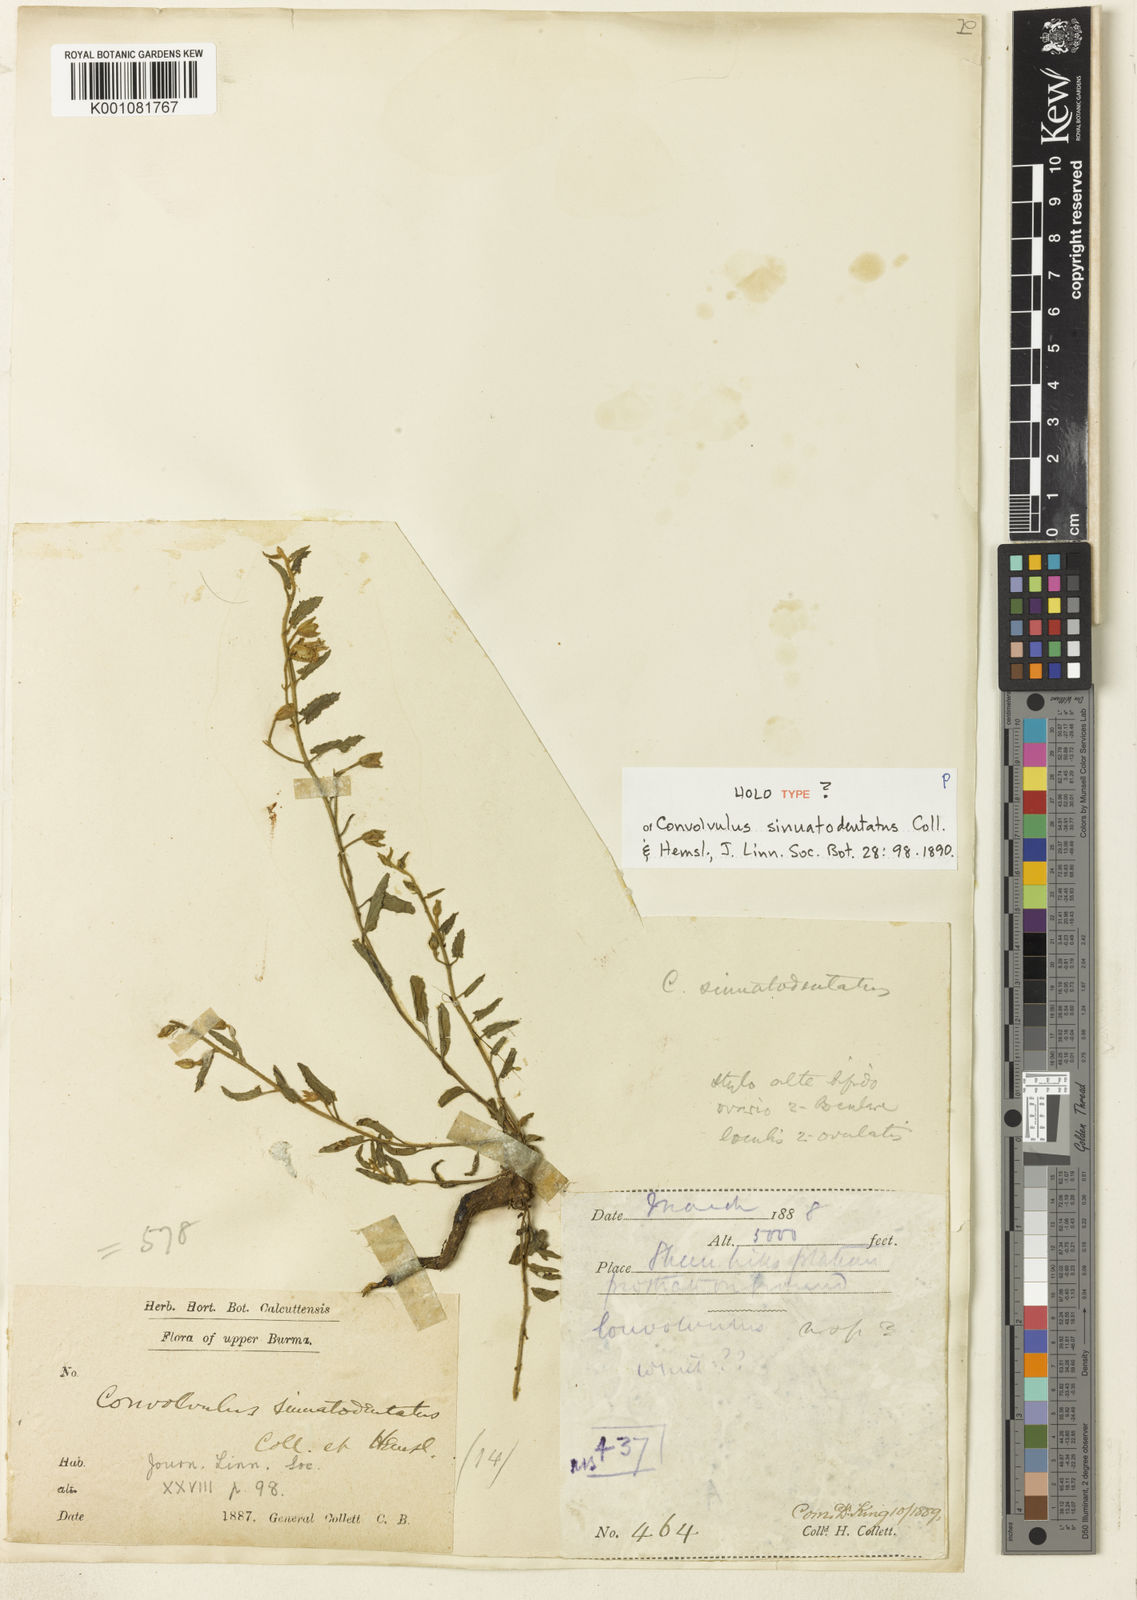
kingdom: Plantae
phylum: Tracheophyta
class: Magnoliopsida
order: Solanales
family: Convolvulaceae
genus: Convolvulus
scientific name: Convolvulus sinuatodentatus
